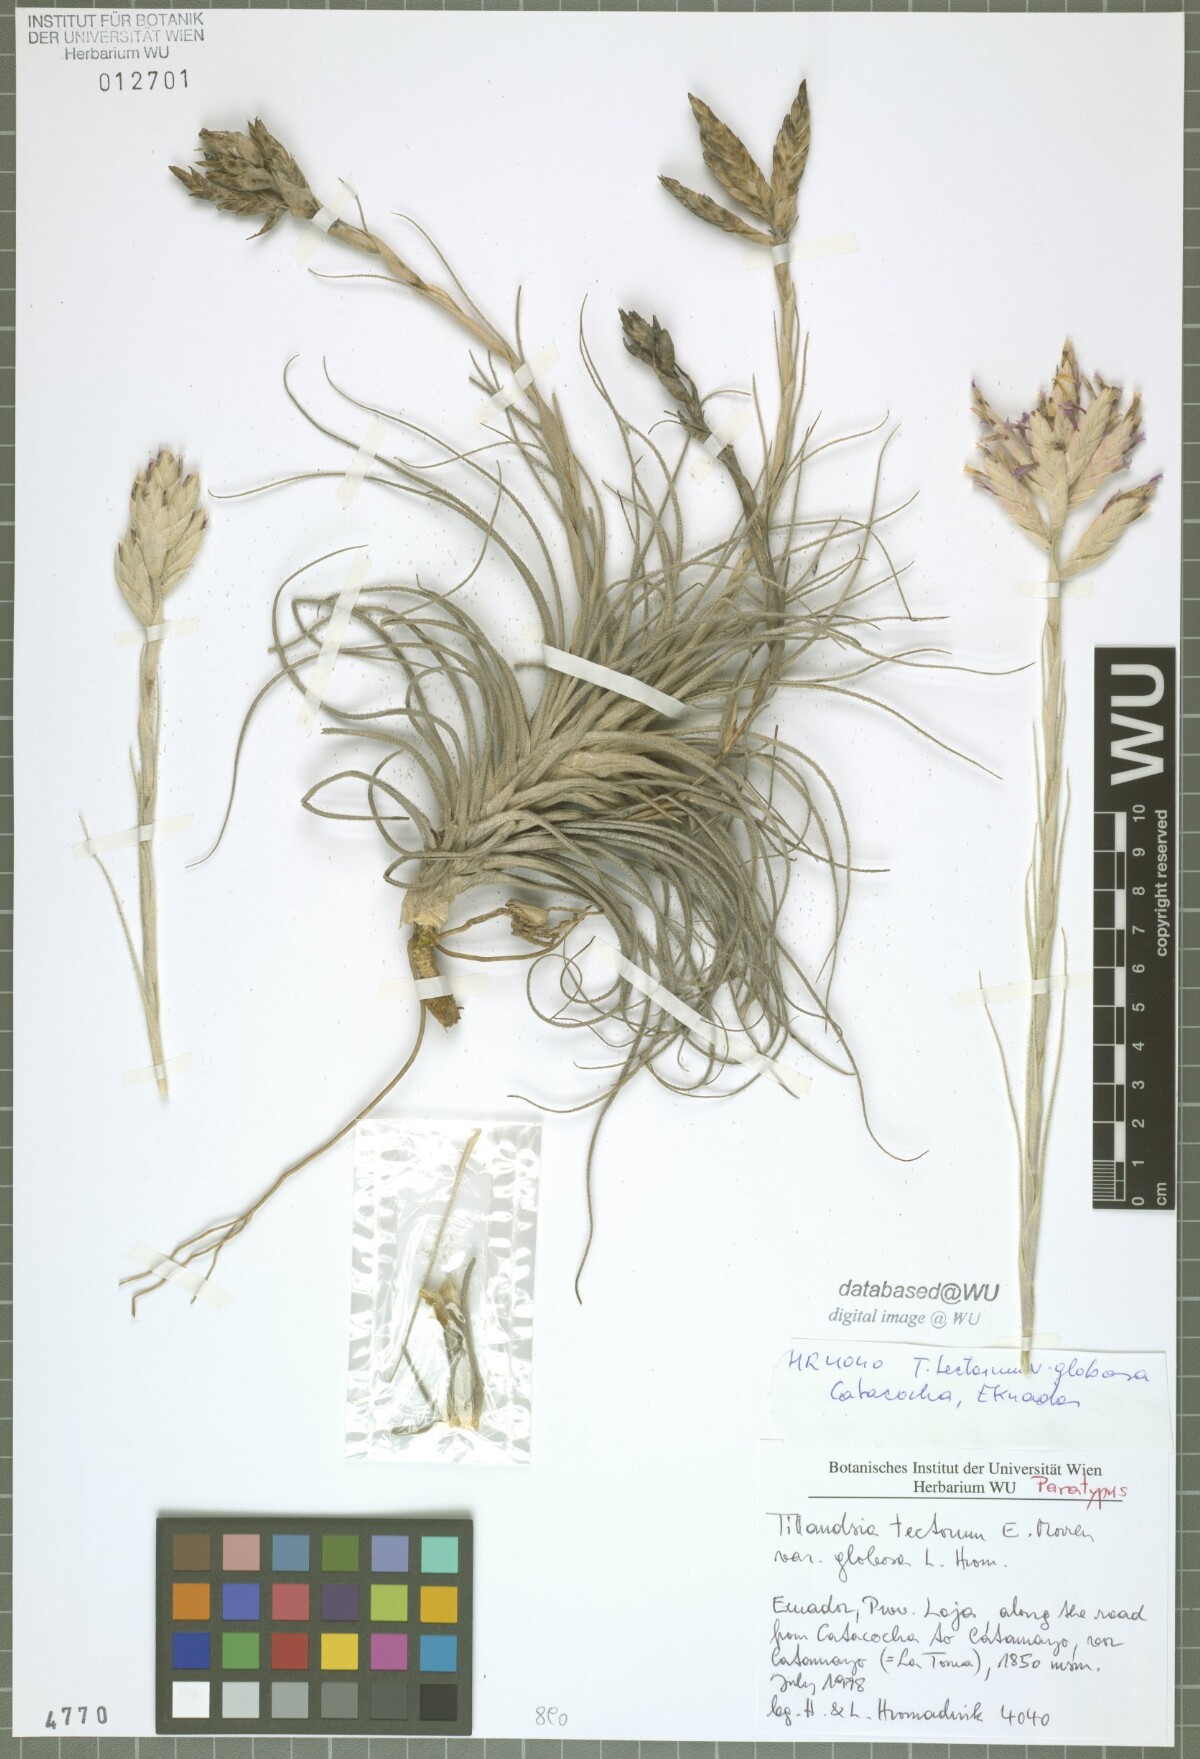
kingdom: Plantae
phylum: Tracheophyta
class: Liliopsida
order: Poales
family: Bromeliaceae
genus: Tillandsia
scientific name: Tillandsia tectorum
